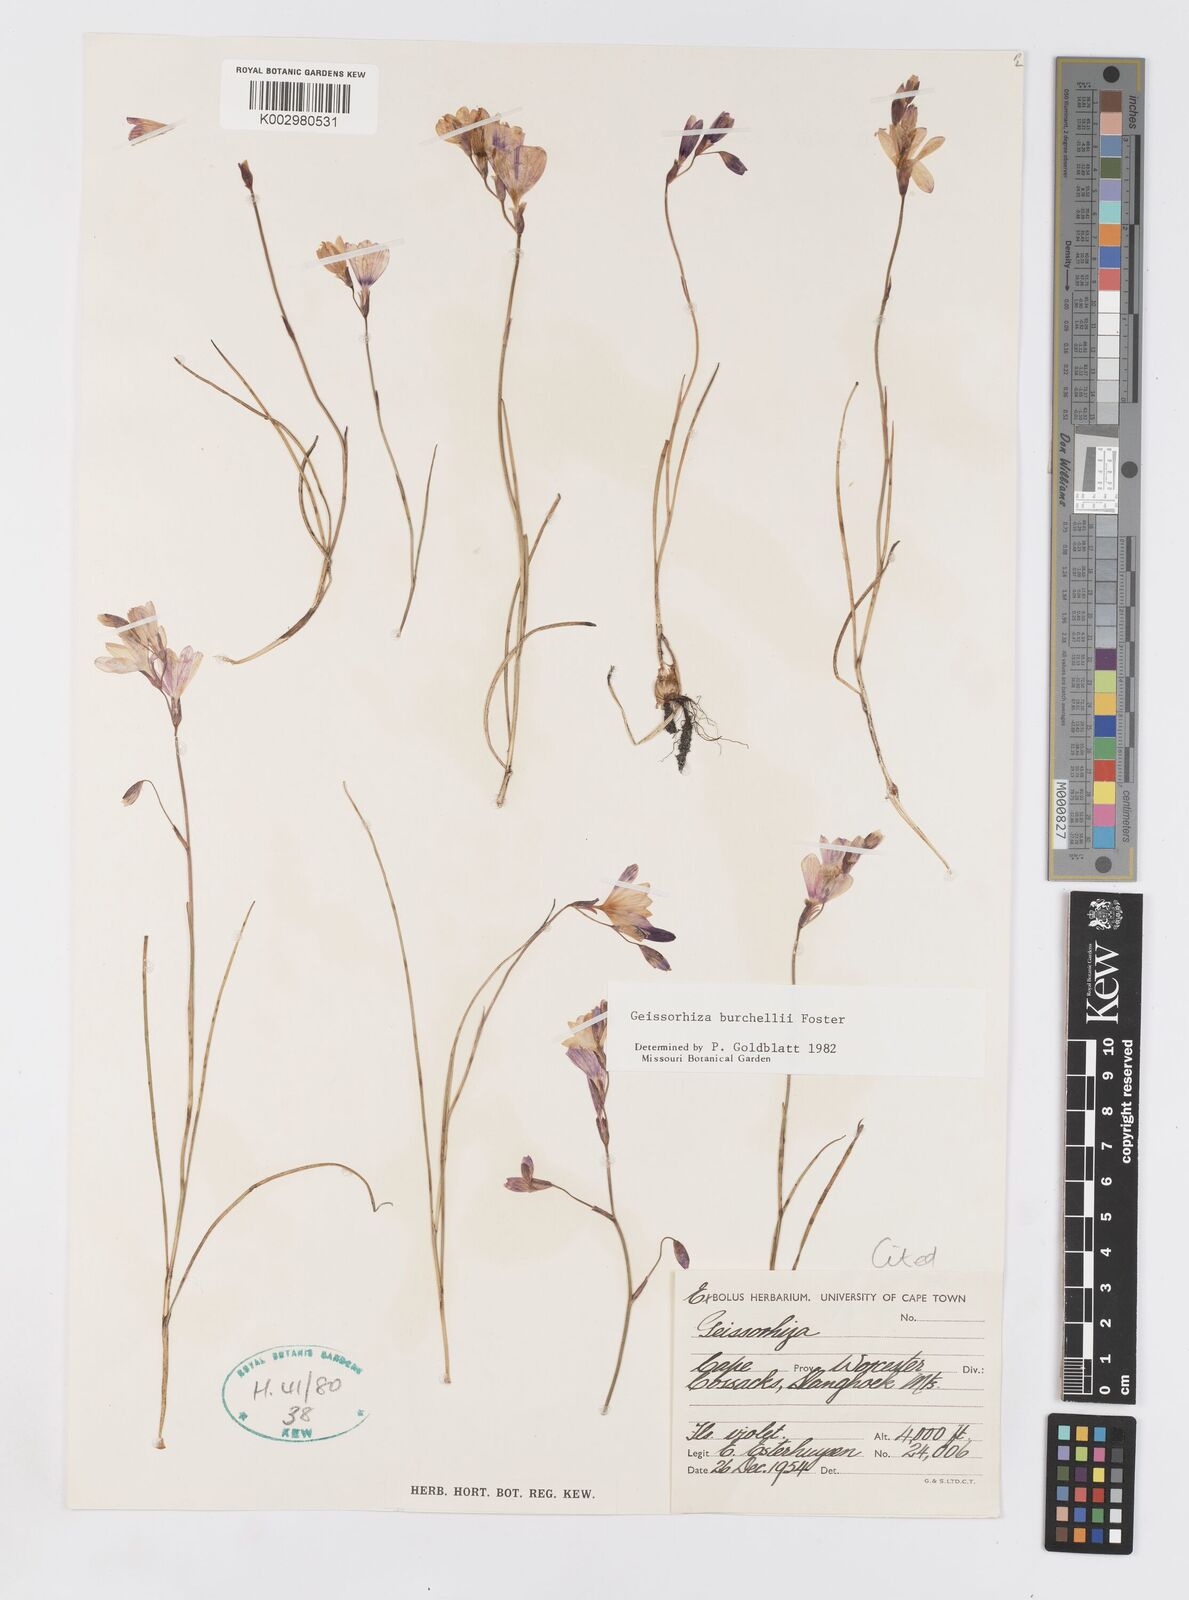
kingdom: Plantae
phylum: Tracheophyta
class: Liliopsida
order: Asparagales
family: Iridaceae
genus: Geissorhiza
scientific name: Geissorhiza burchellii
